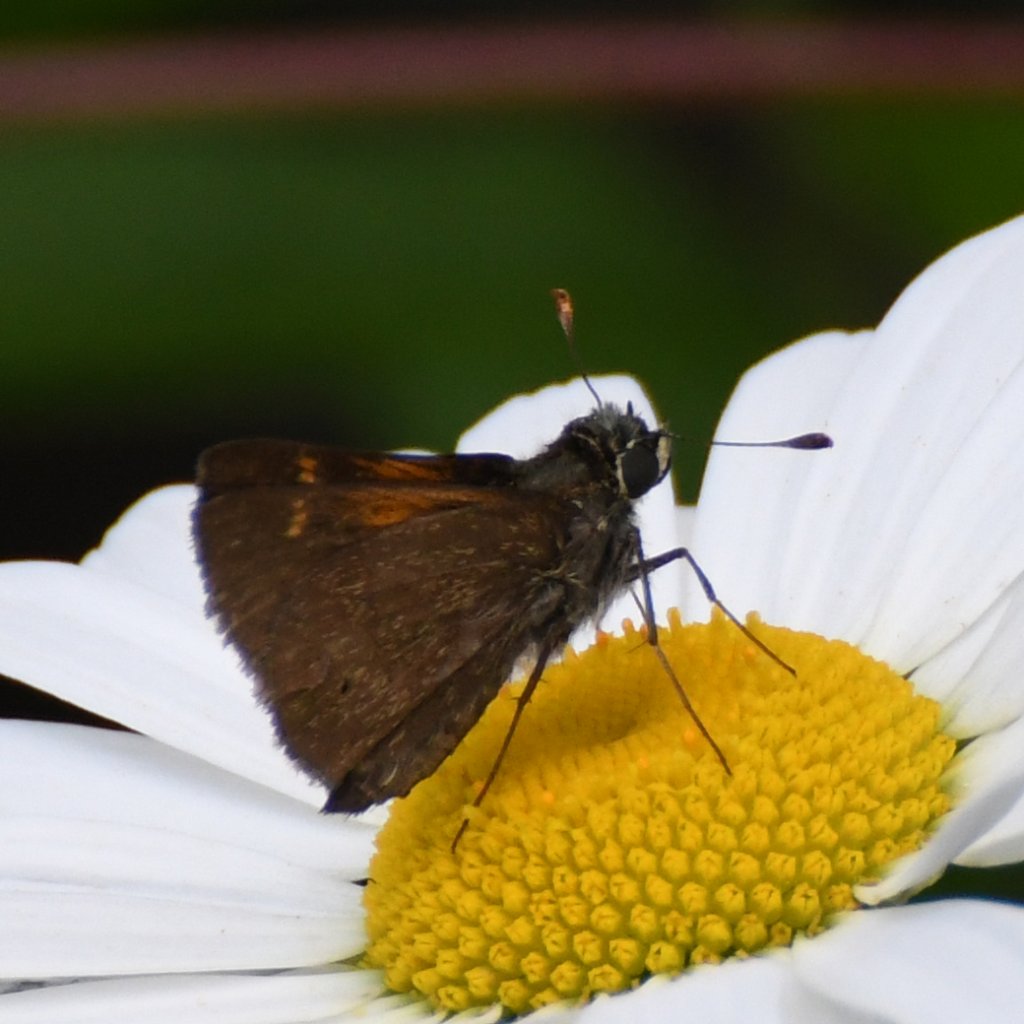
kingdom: Animalia
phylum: Arthropoda
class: Insecta
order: Lepidoptera
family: Hesperiidae
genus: Polites
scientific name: Polites themistocles
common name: Tawny-edged Skipper
